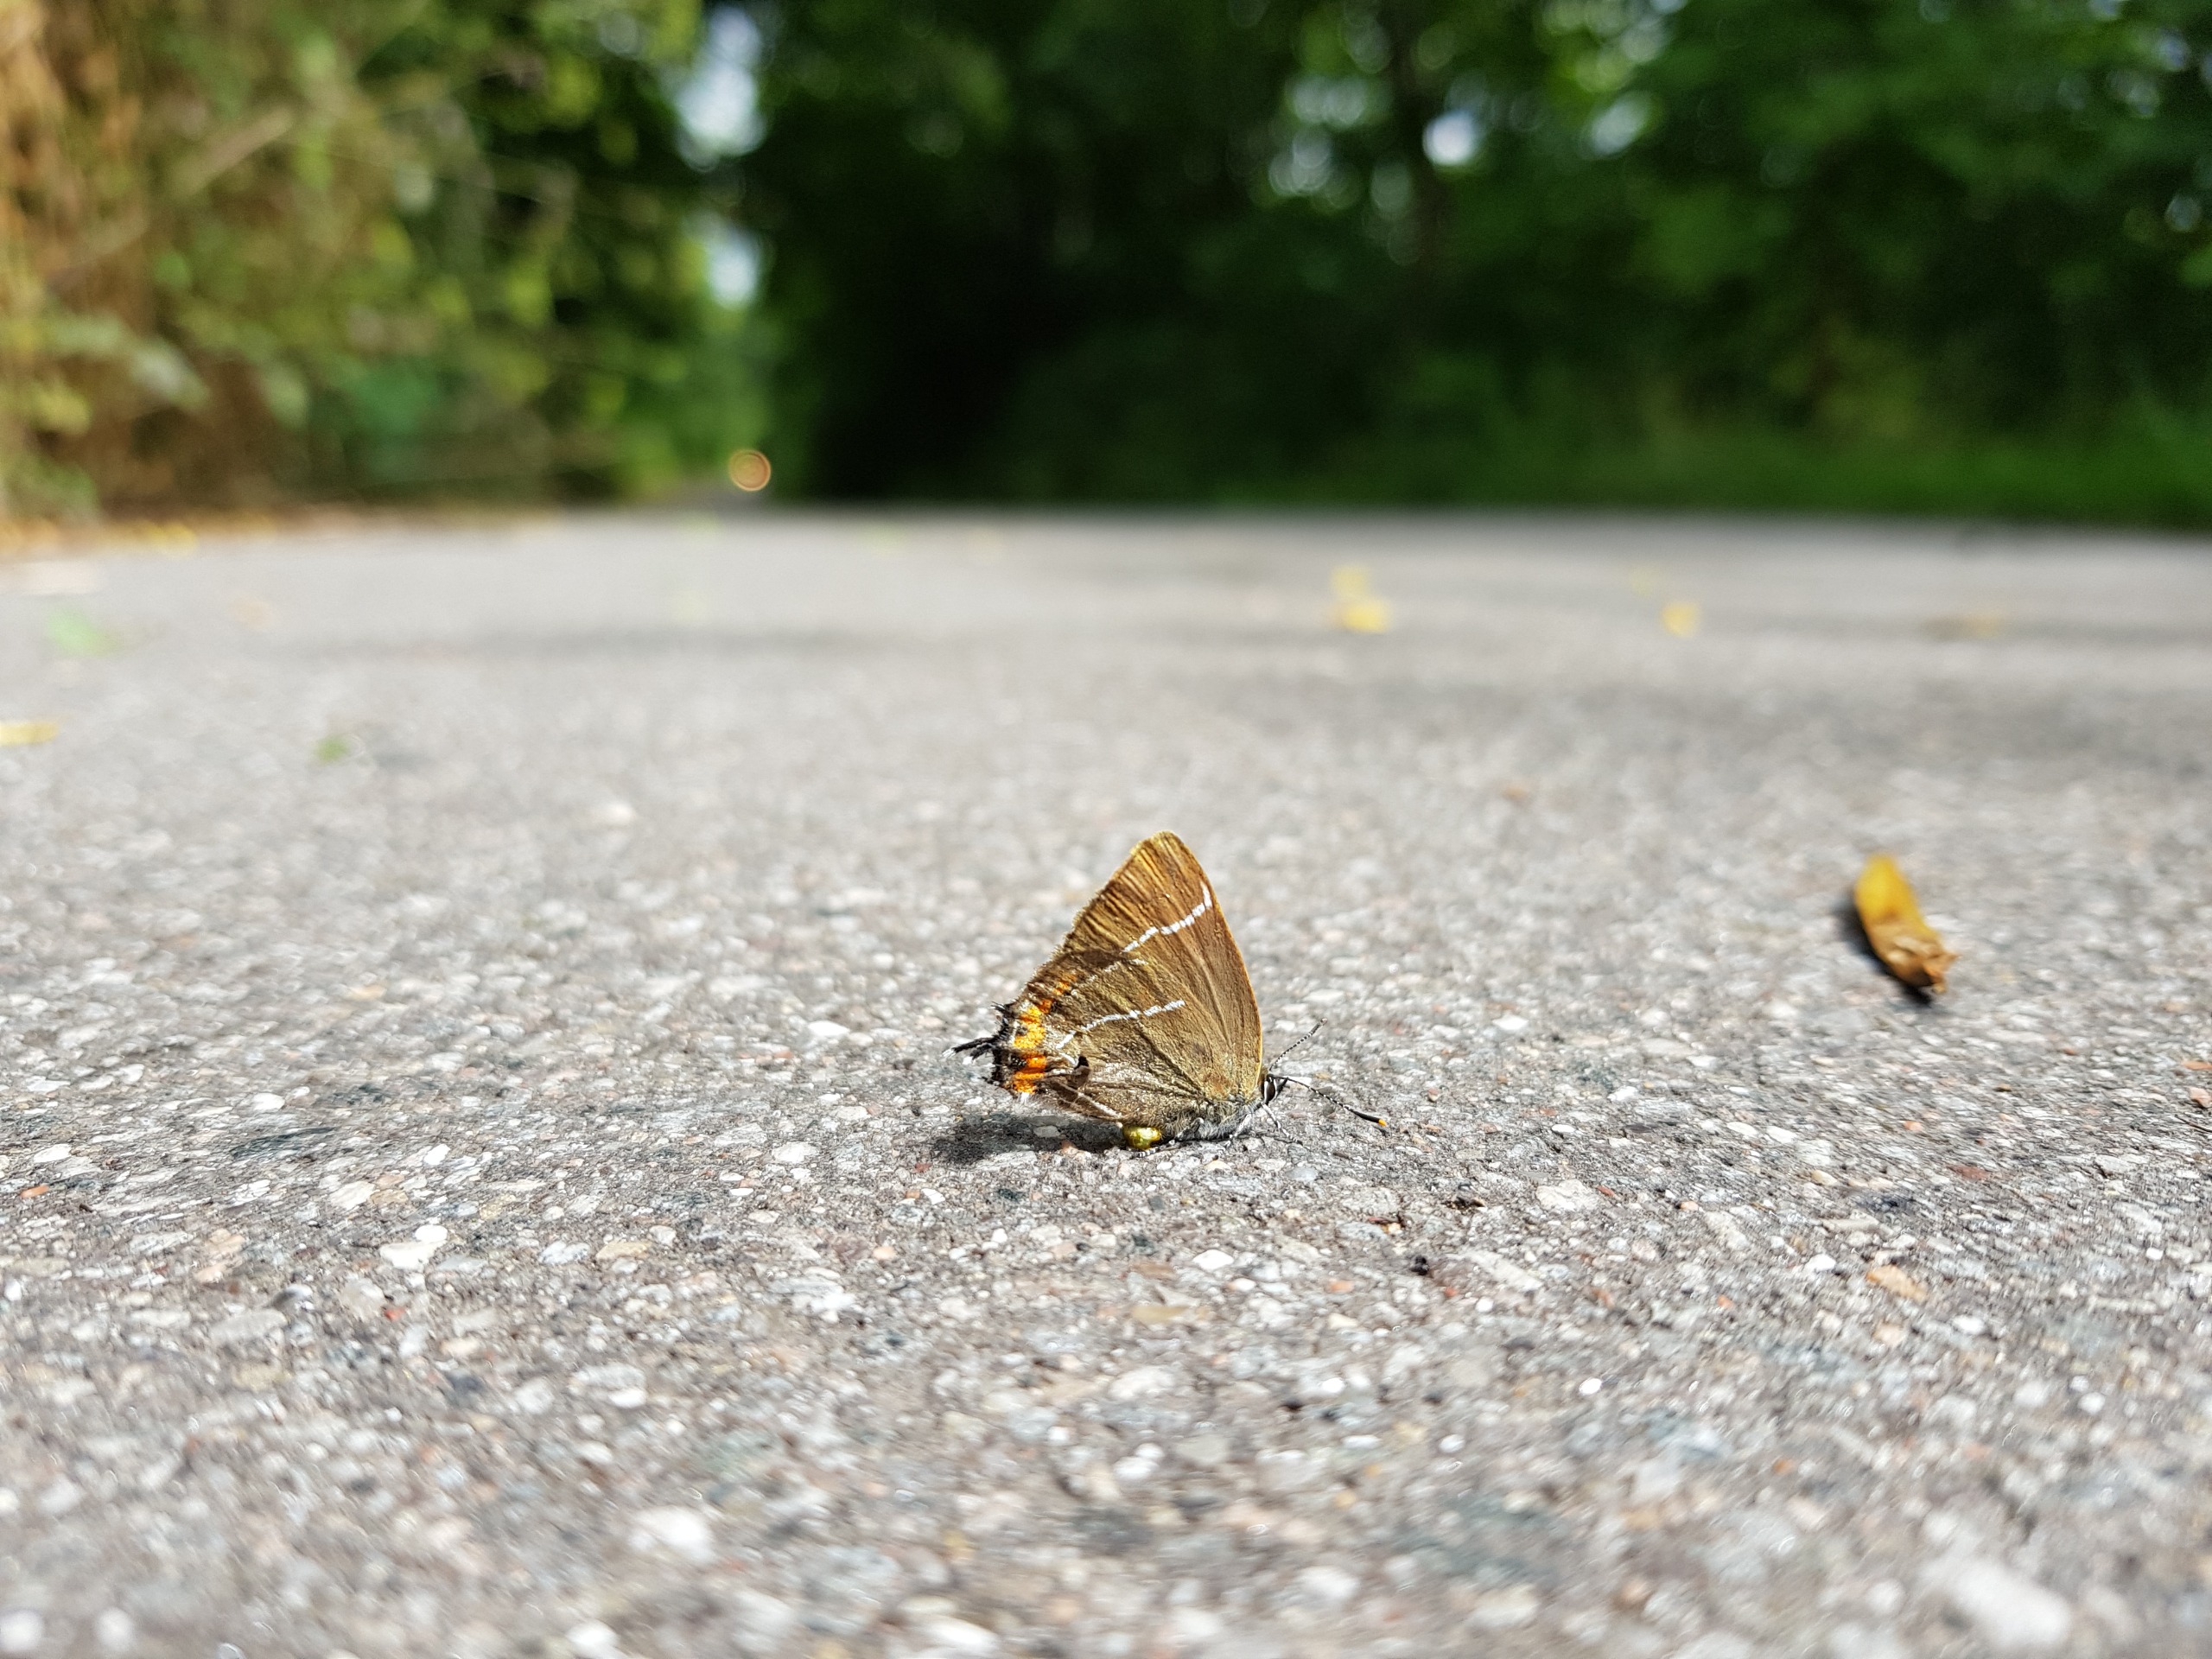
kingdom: Animalia
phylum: Arthropoda
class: Insecta
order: Lepidoptera
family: Lycaenidae
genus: Satyrium
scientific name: Satyrium w-album
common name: Det hvide W
